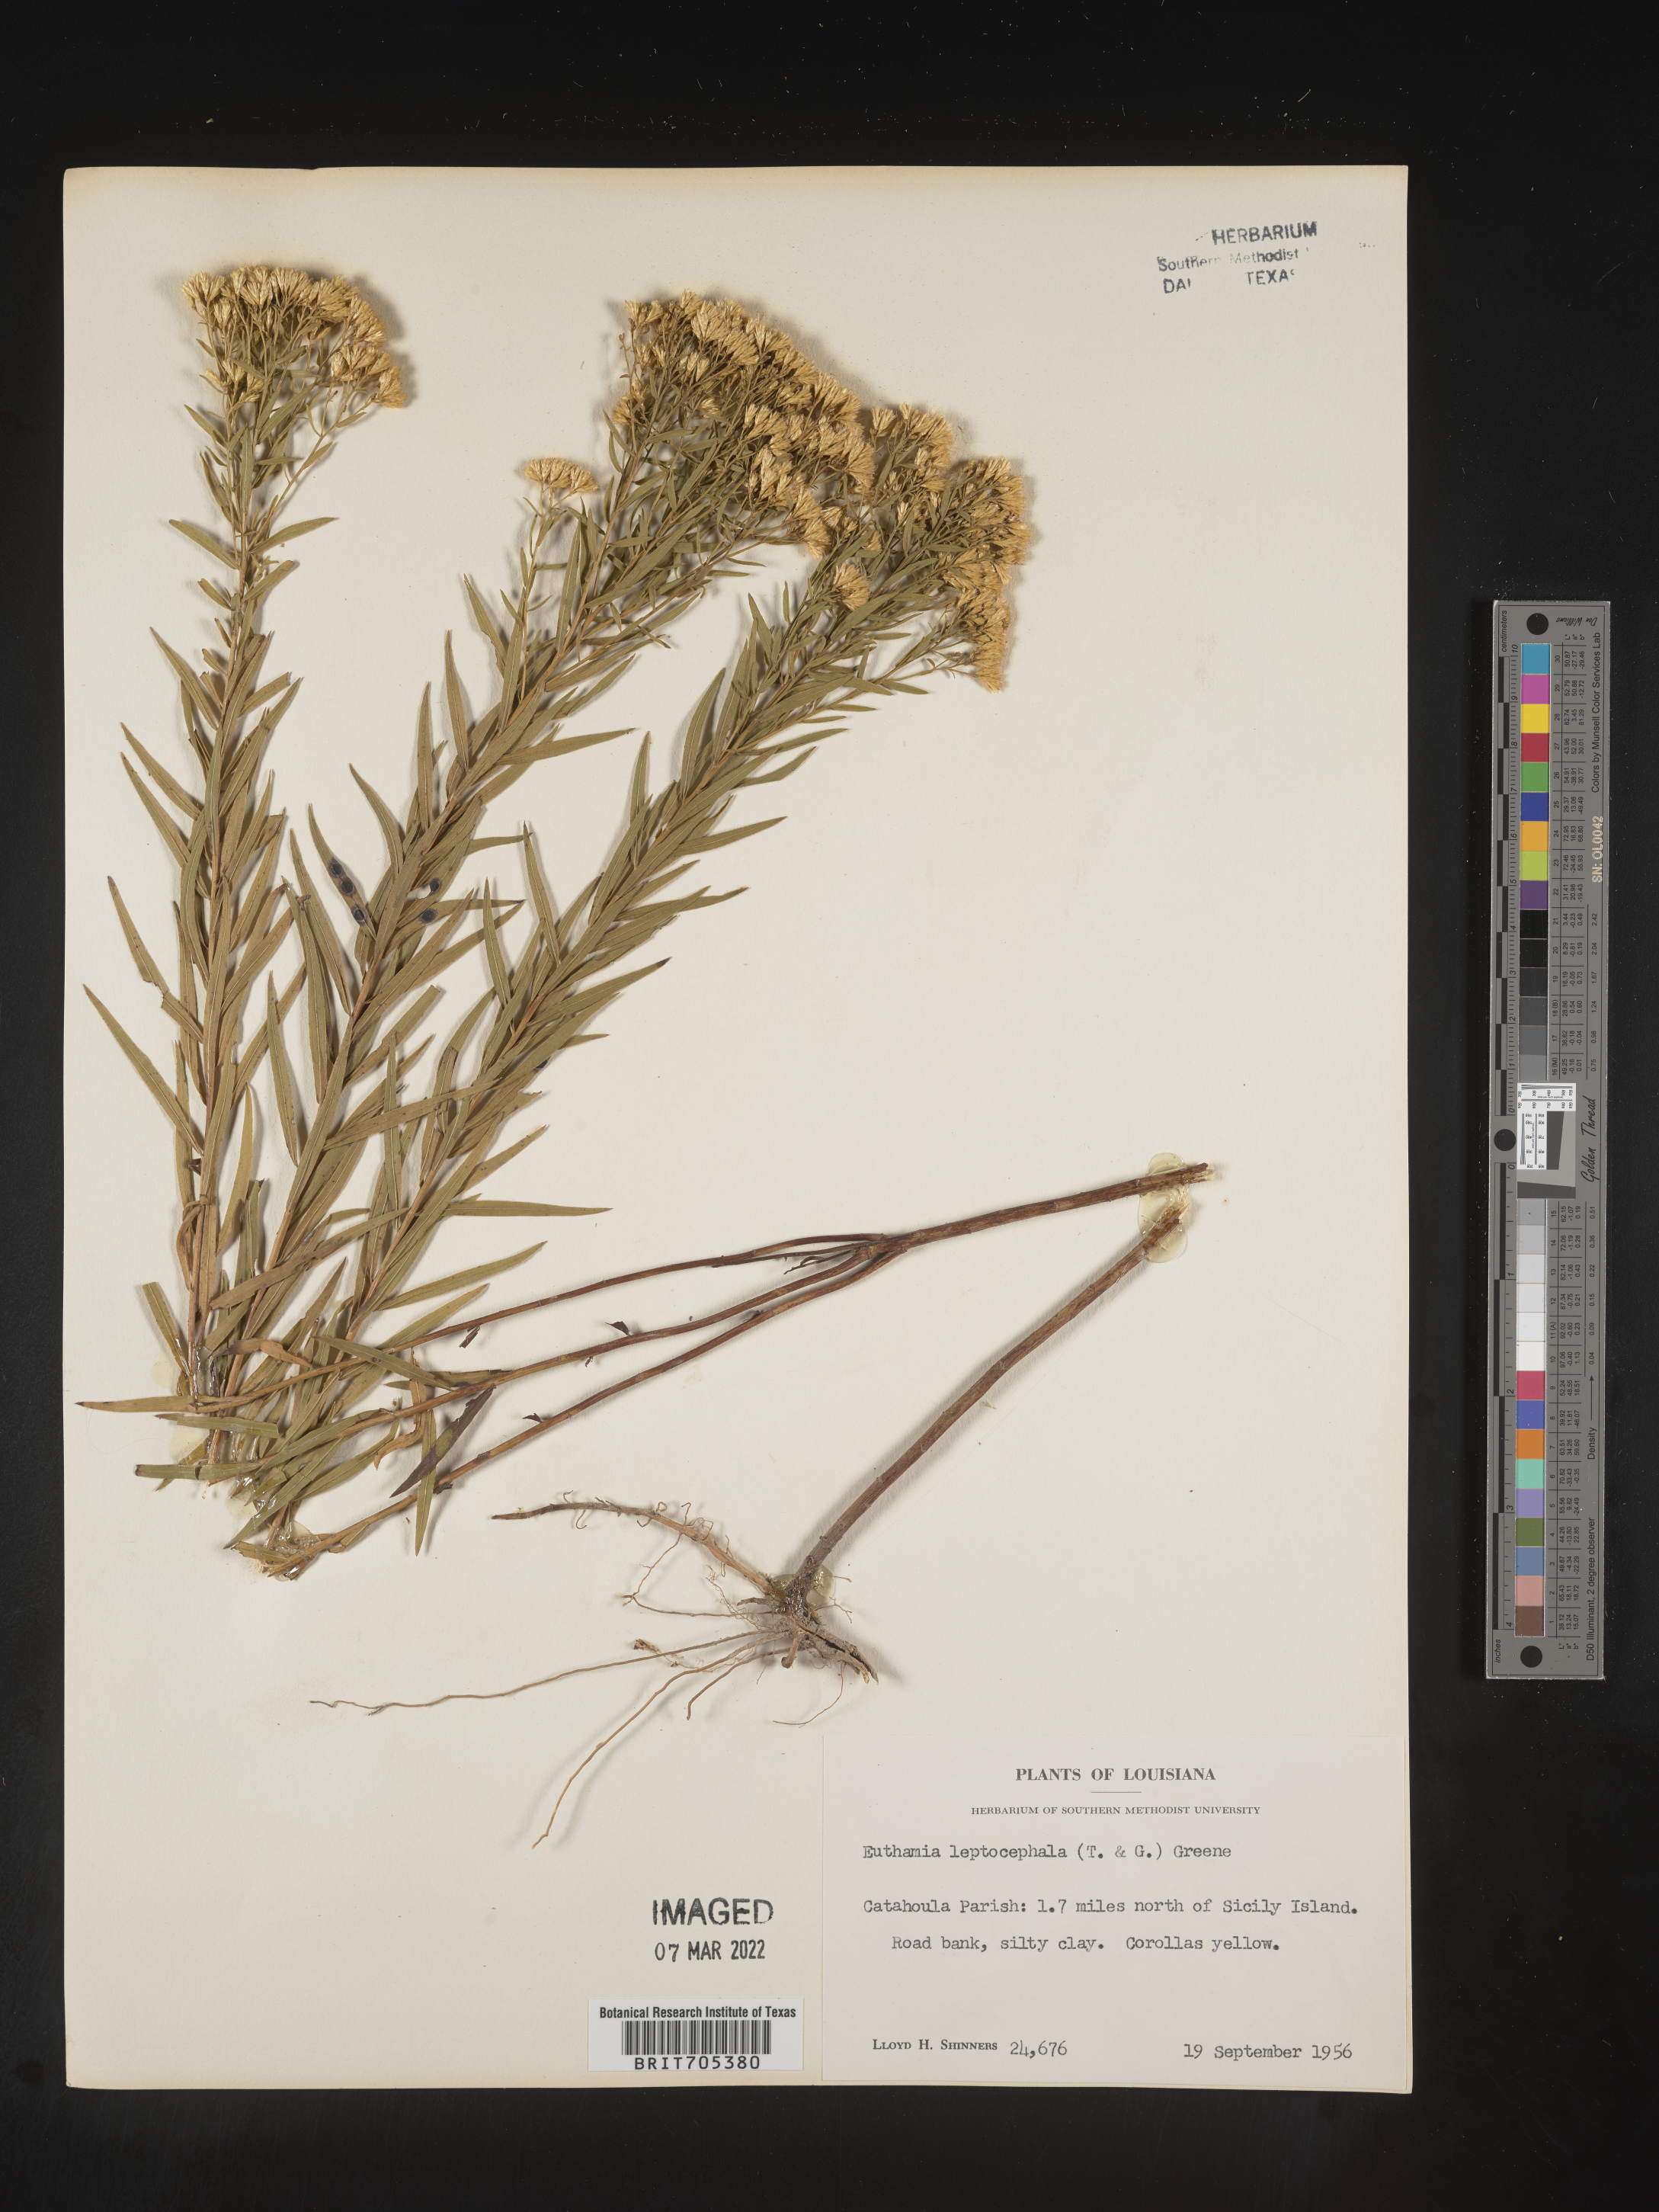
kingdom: Plantae
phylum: Tracheophyta
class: Magnoliopsida
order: Asterales
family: Asteraceae
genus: Euthamia
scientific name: Euthamia leptocephala
